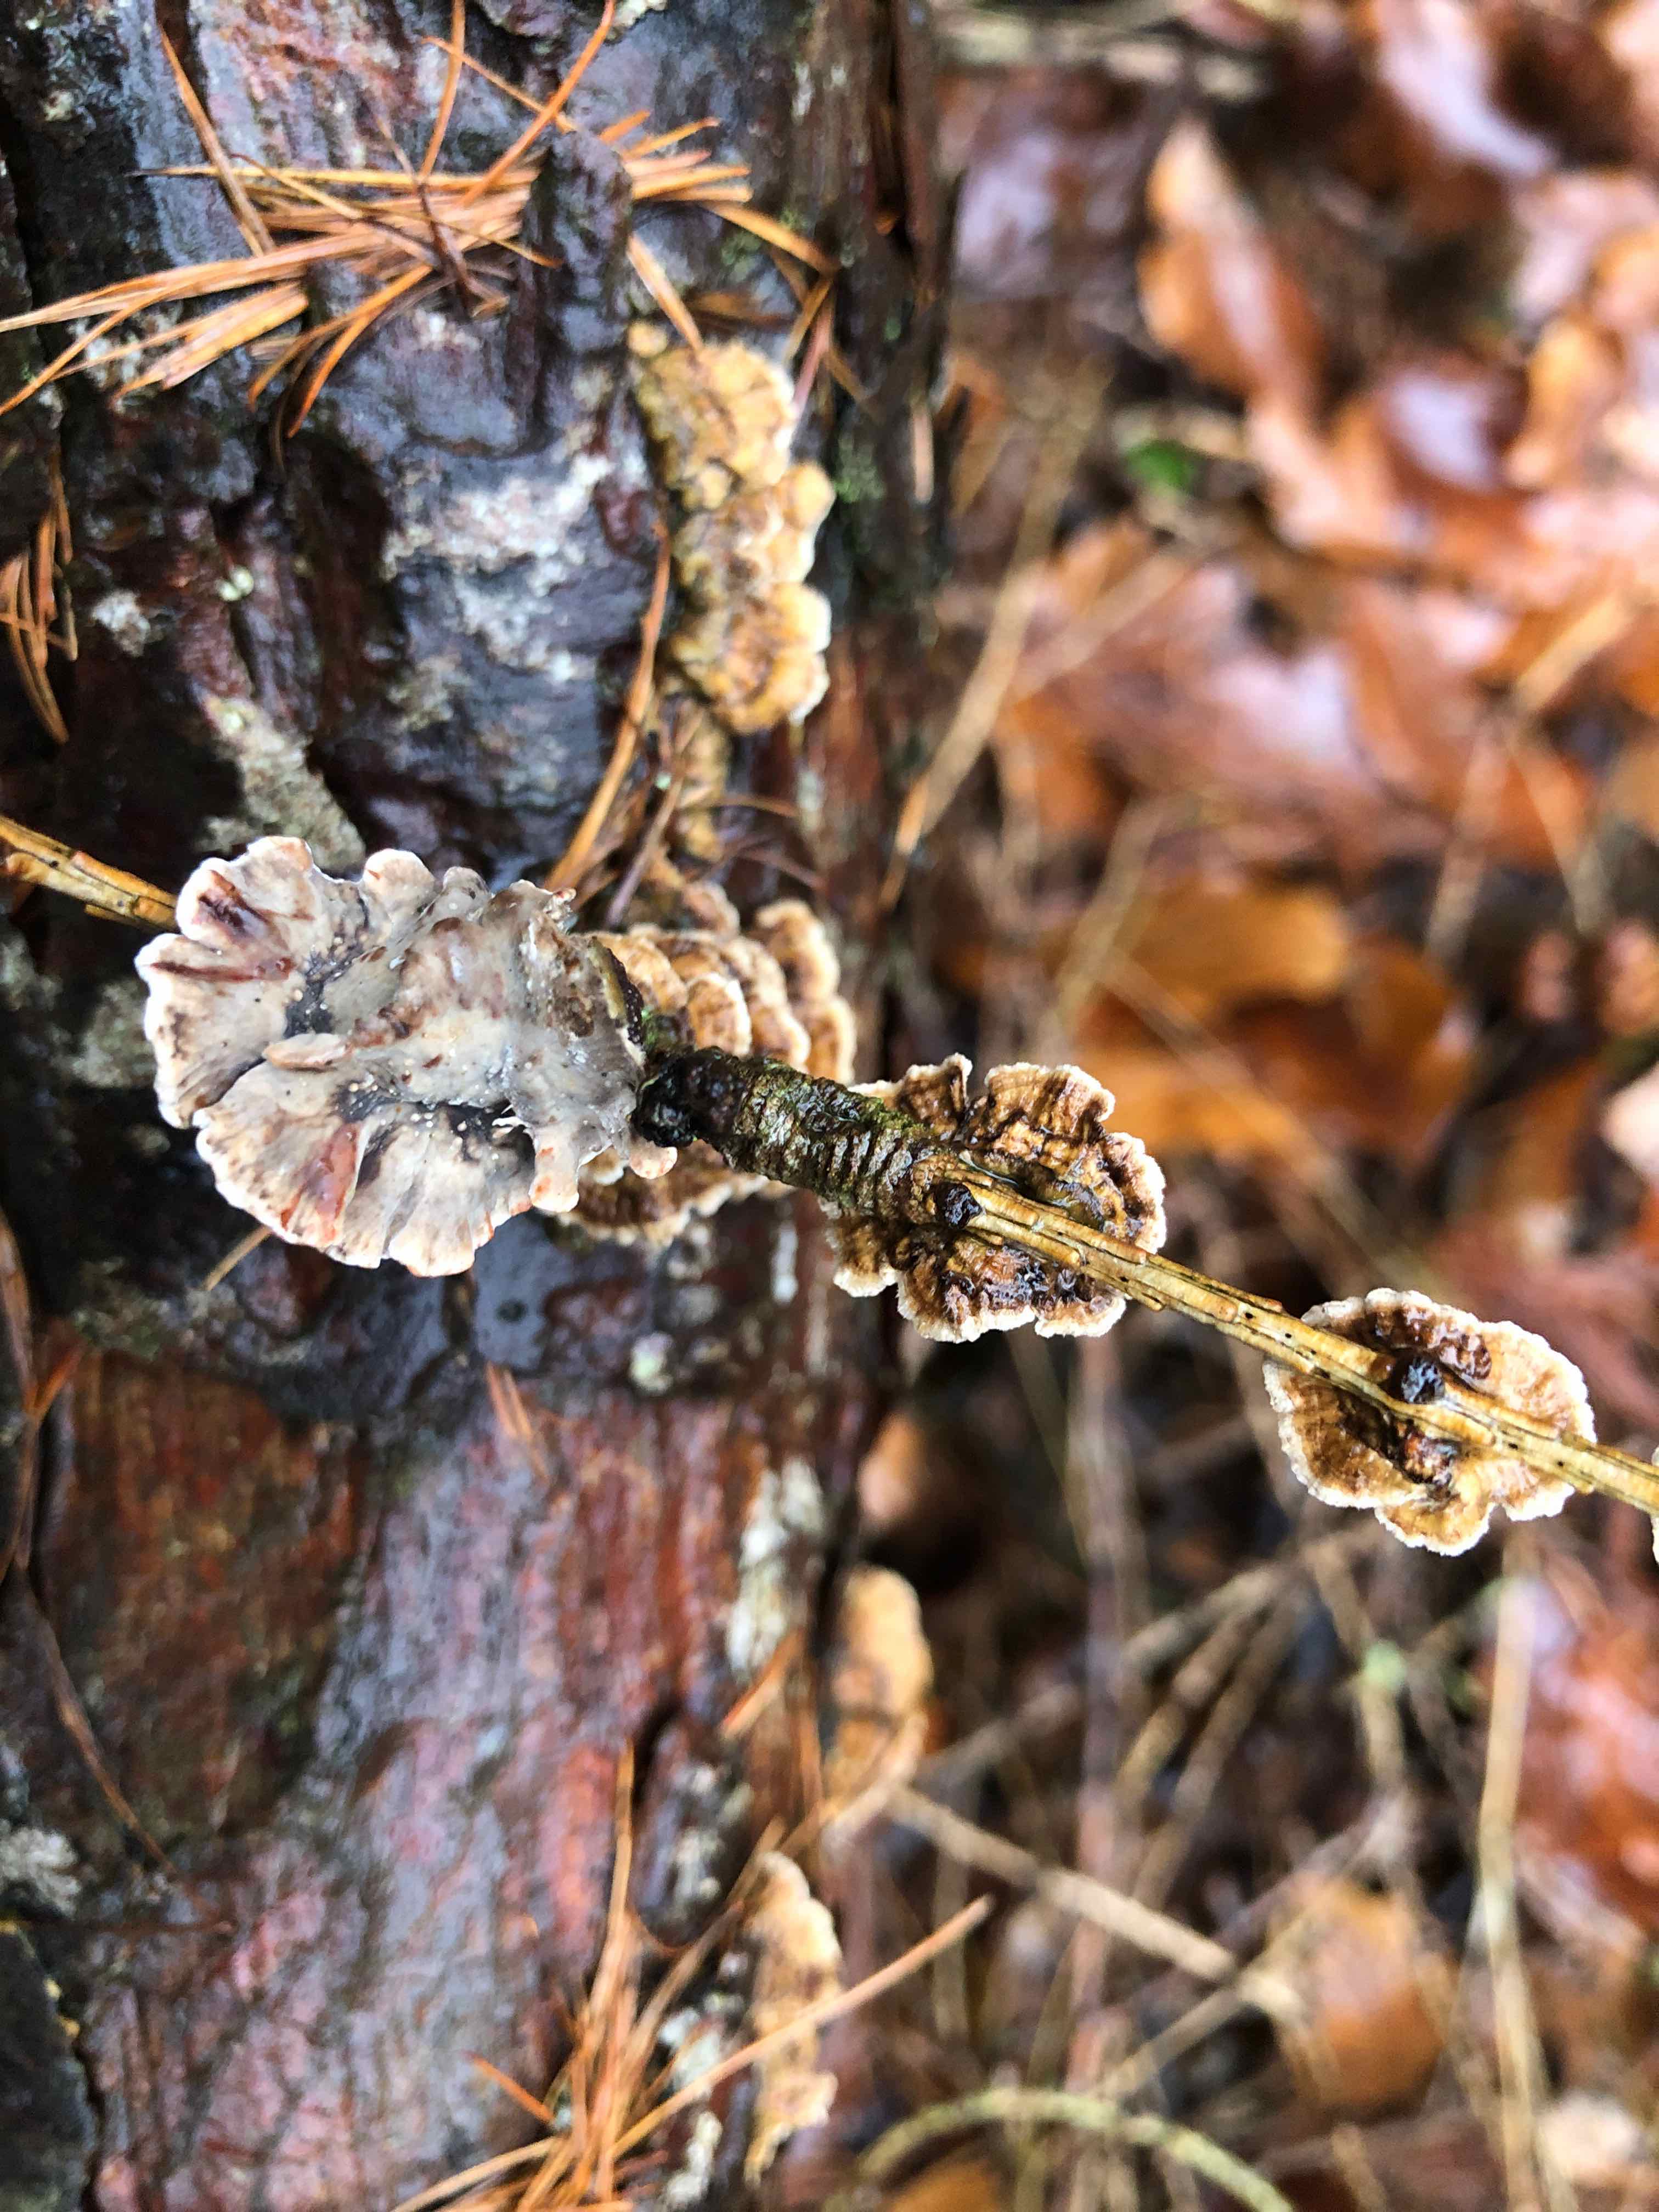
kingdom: Fungi
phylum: Basidiomycota
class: Agaricomycetes
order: Russulales
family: Stereaceae
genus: Stereum
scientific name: Stereum sanguinolentum
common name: blødende lædersvamp
